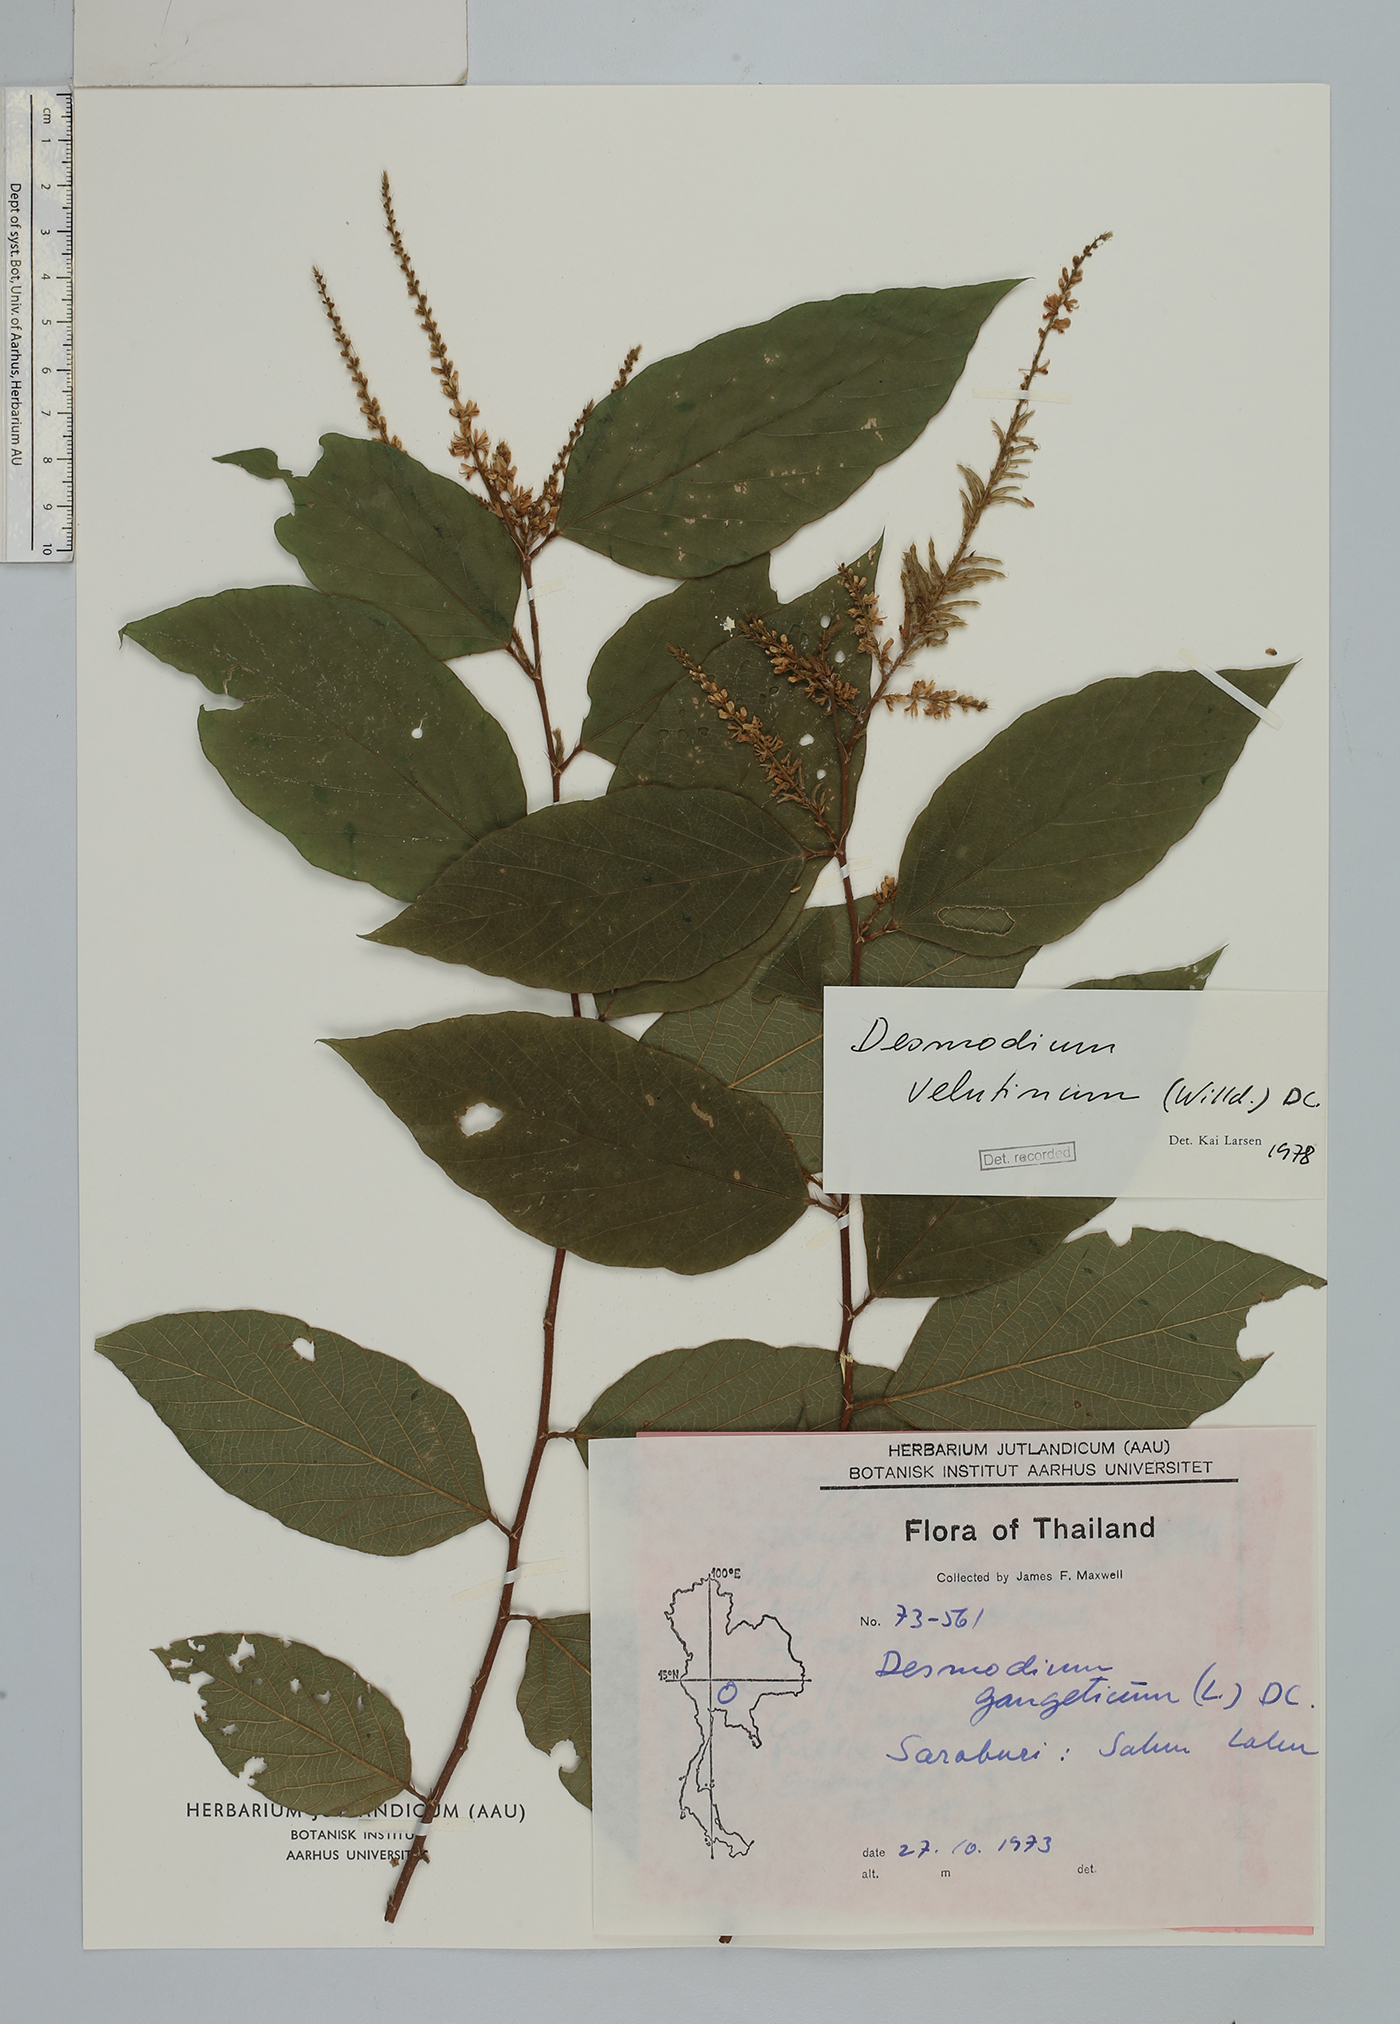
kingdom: Plantae
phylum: Tracheophyta
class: Magnoliopsida
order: Fabales
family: Fabaceae
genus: Polhillides
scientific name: Polhillides velutina
